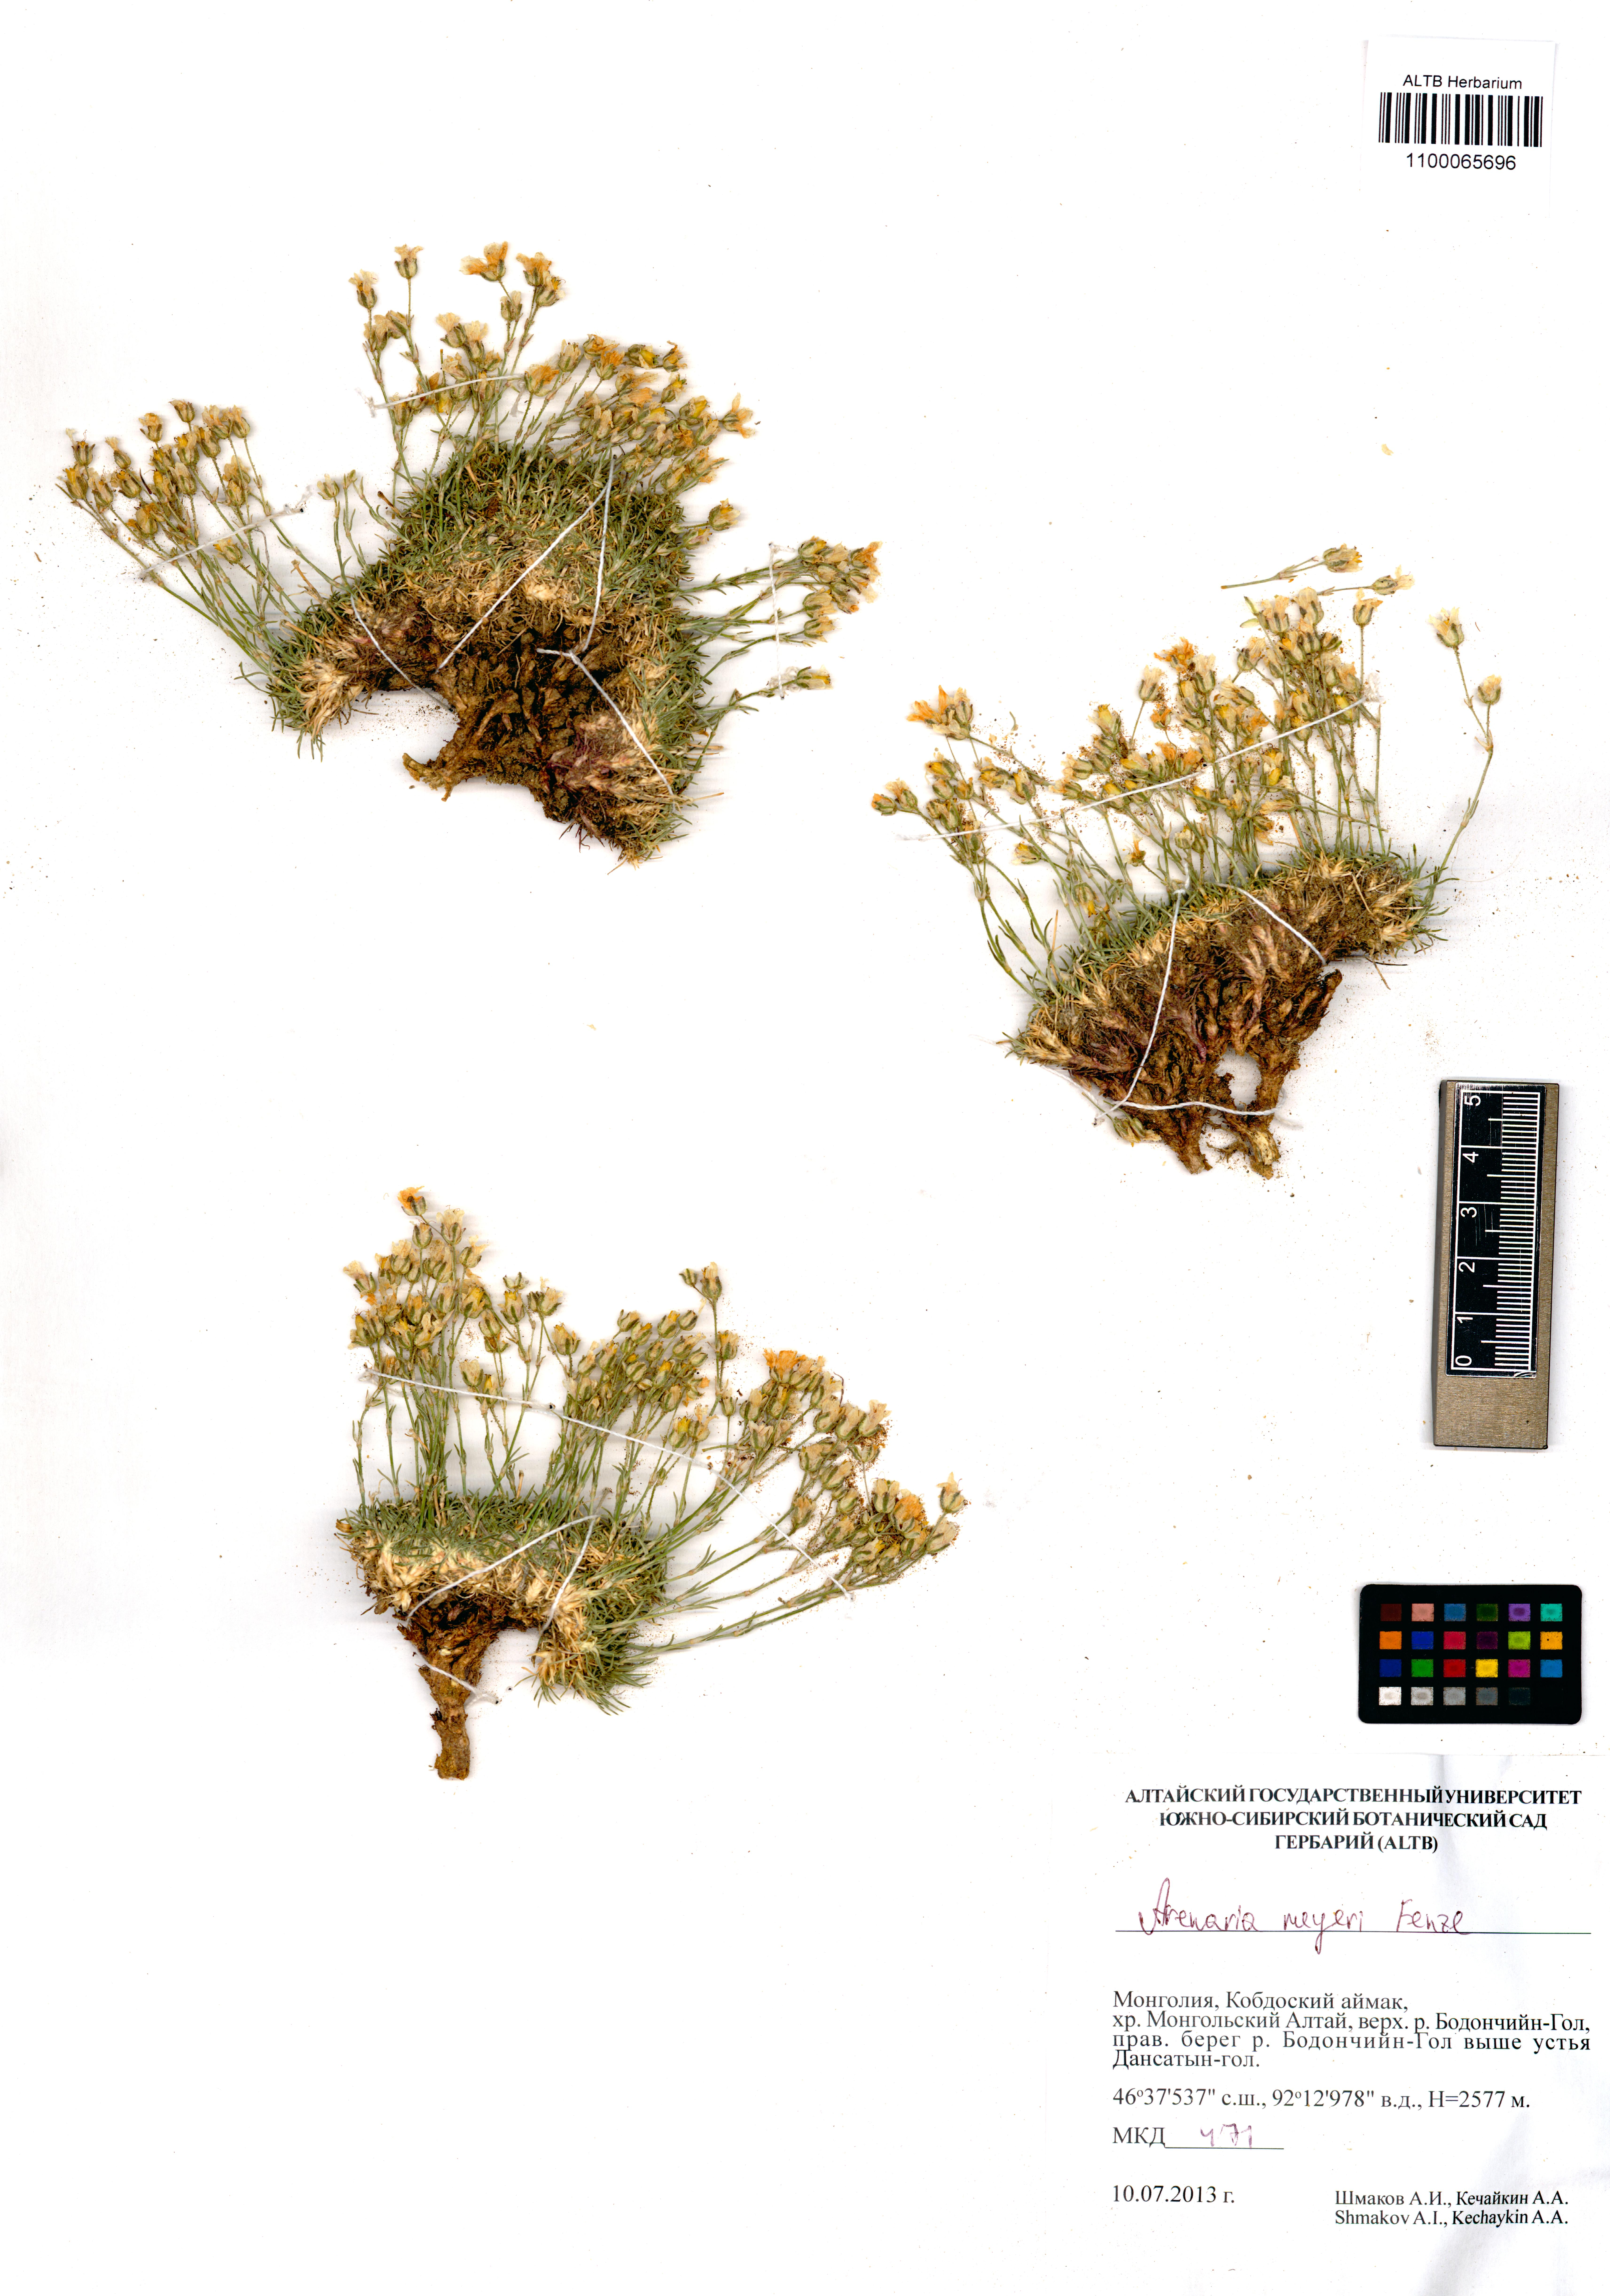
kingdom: Plantae
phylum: Tracheophyta
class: Magnoliopsida
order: Caryophyllales
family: Caryophyllaceae
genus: Eremogone
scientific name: Eremogone meyeri
